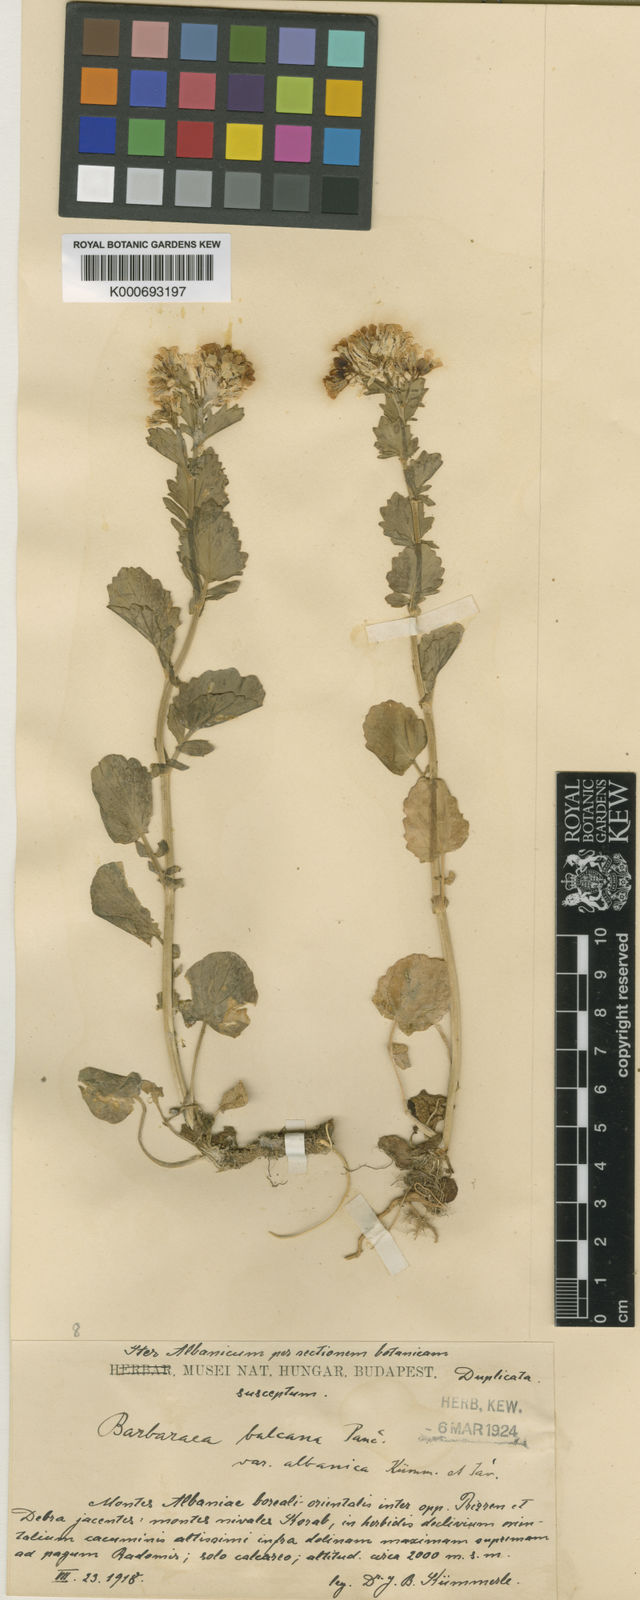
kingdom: Plantae
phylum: Tracheophyta
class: Magnoliopsida
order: Brassicales
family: Brassicaceae
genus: Barbarea
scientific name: Barbarea
